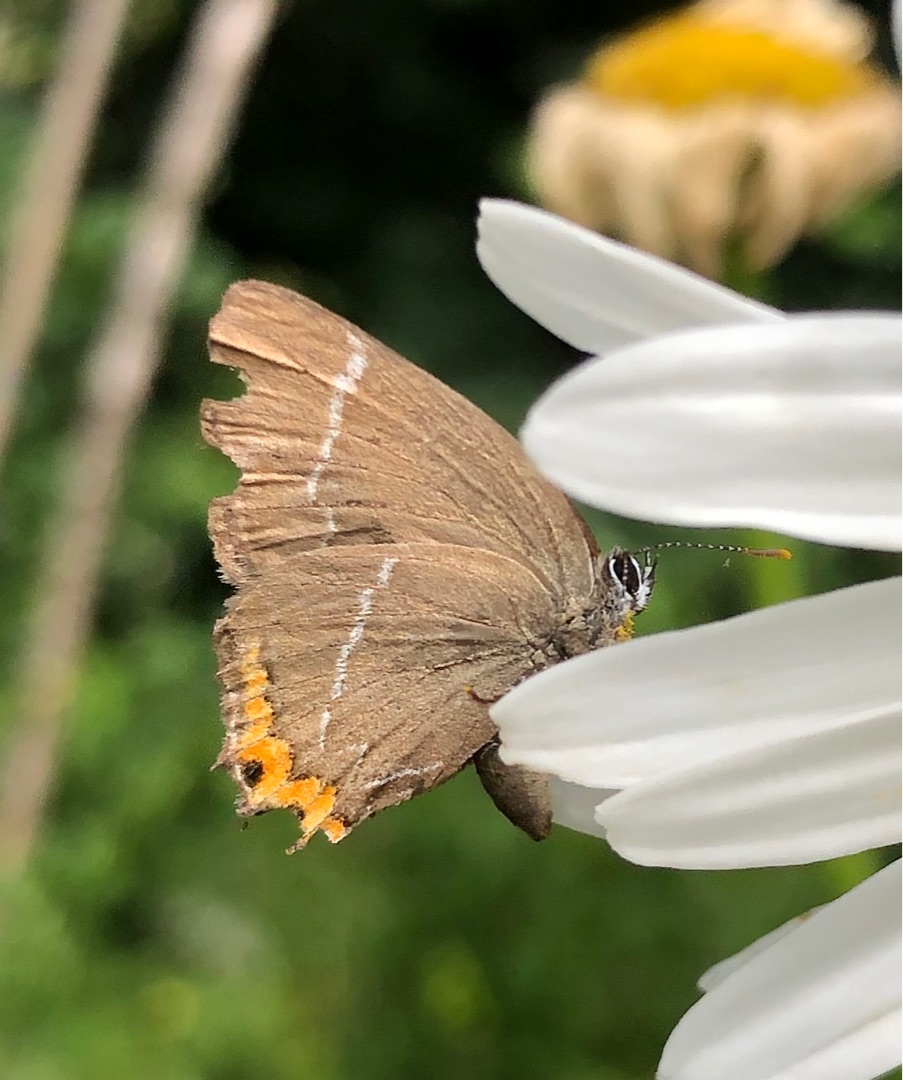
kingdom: Animalia
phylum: Arthropoda
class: Insecta
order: Lepidoptera
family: Lycaenidae
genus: Satyrium
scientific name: Satyrium w-album
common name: Det hvide W
